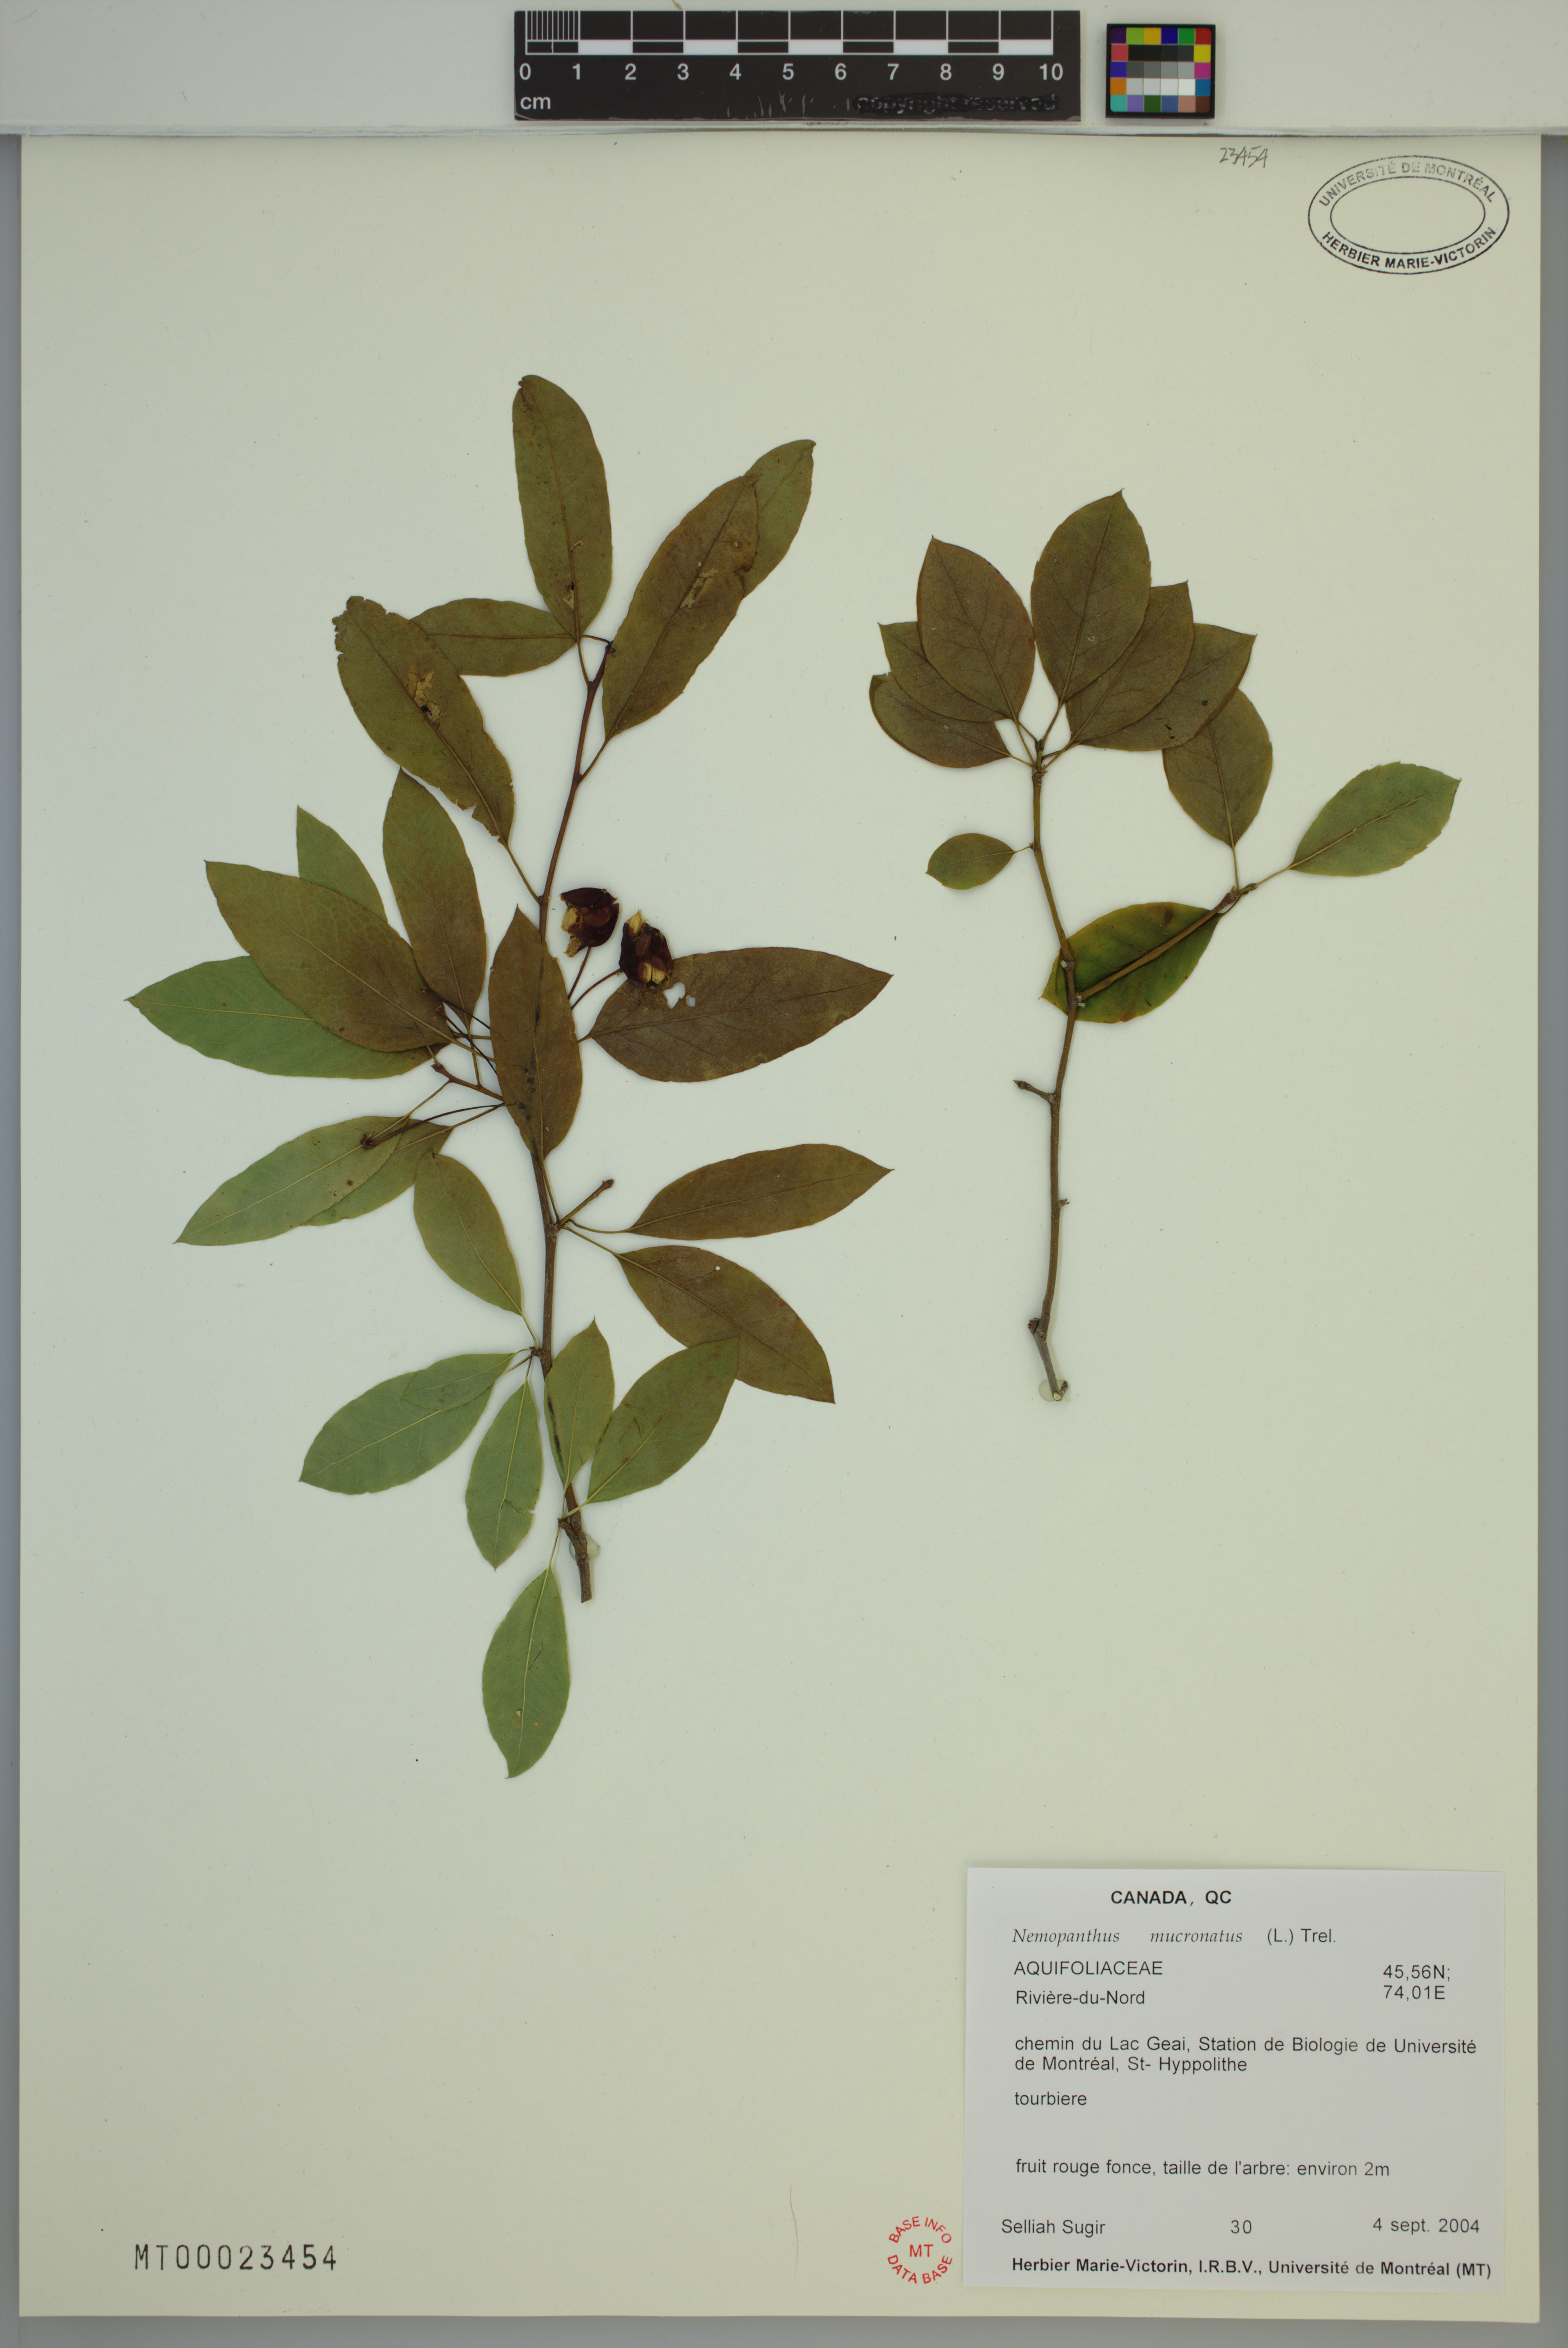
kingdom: Plantae
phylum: Tracheophyta
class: Magnoliopsida
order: Aquifoliales
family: Aquifoliaceae
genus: Ilex
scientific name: Ilex mucronata
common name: Catberry
